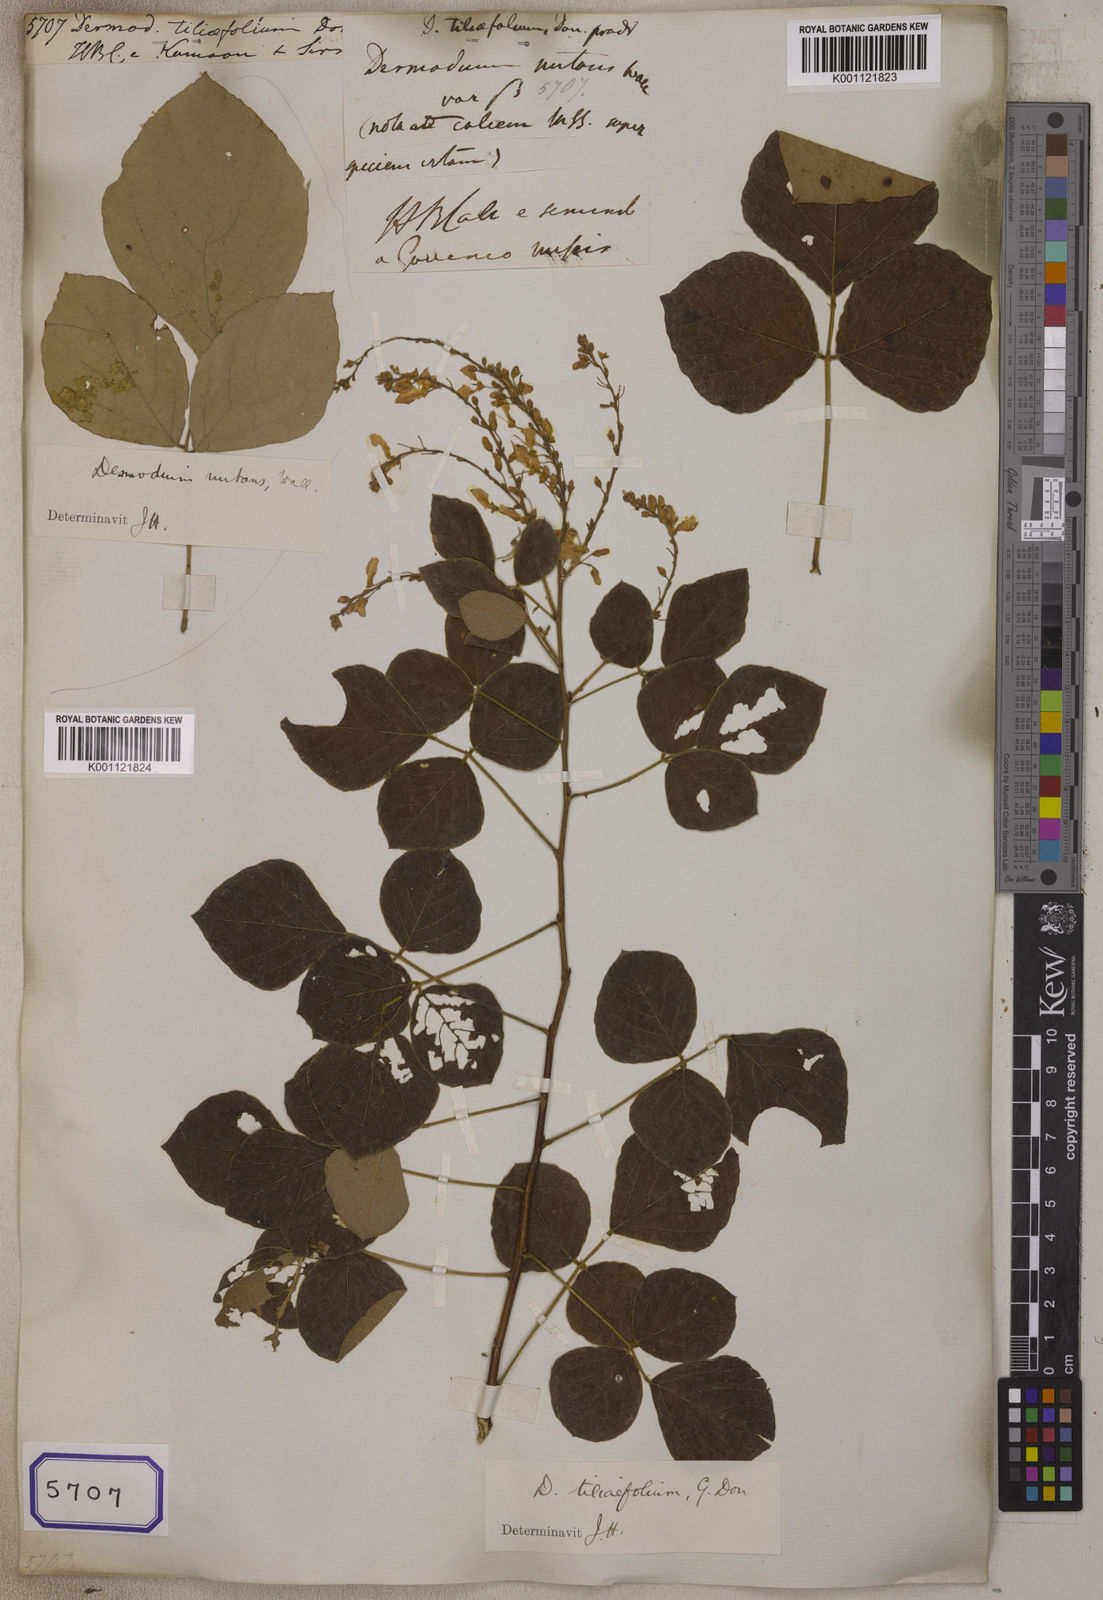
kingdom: Plantae
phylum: Tracheophyta
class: Magnoliopsida
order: Fabales
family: Fabaceae
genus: Desmodium
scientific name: Desmodium
